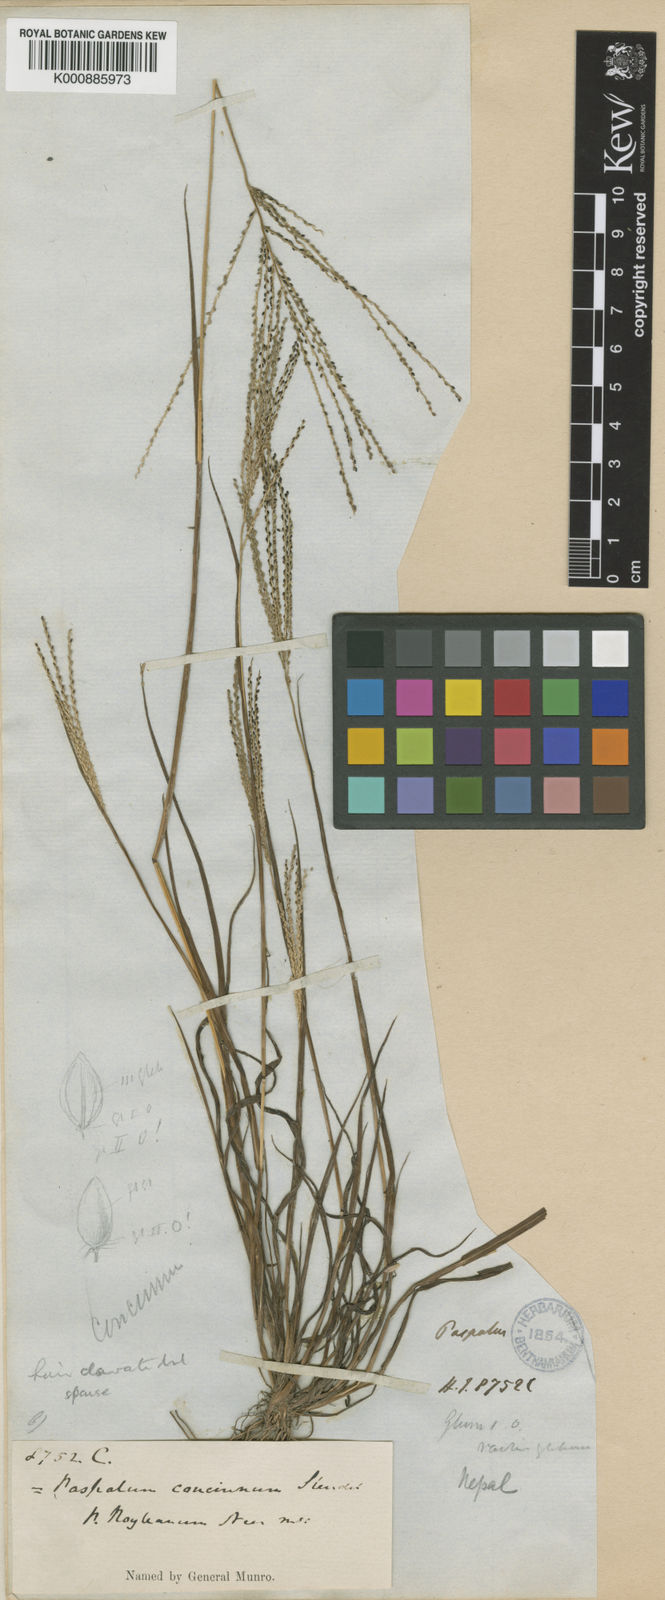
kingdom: Plantae
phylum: Tracheophyta
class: Liliopsida
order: Poales
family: Poaceae
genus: Digitaria
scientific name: Digitaria stricta
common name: Crabgrass
